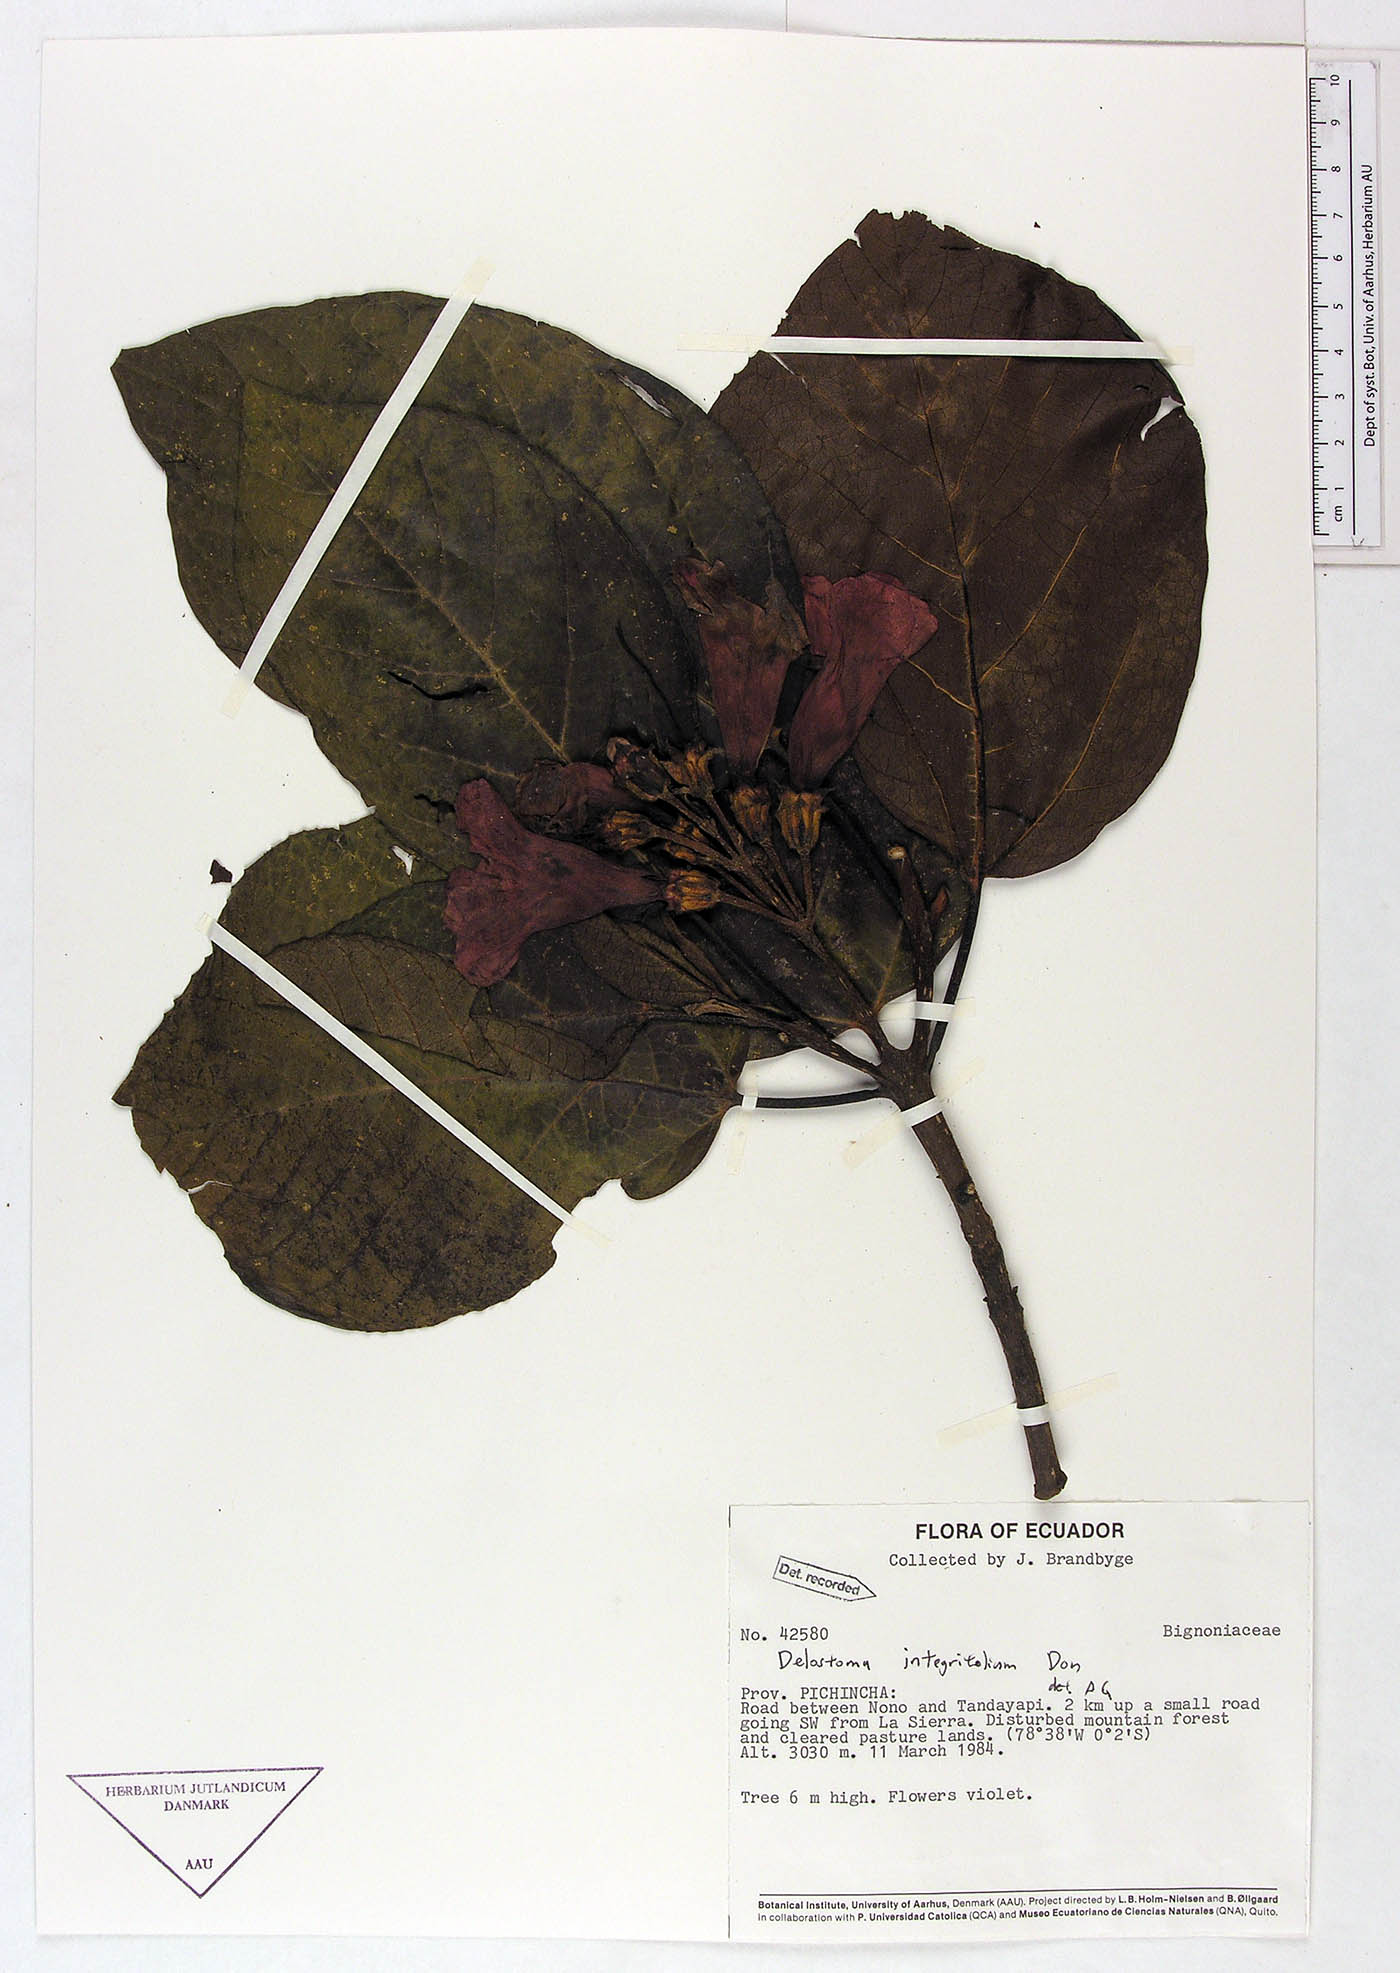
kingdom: Plantae
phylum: Tracheophyta
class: Magnoliopsida
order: Lamiales
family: Bignoniaceae
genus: Delostoma
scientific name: Delostoma integrifolium
